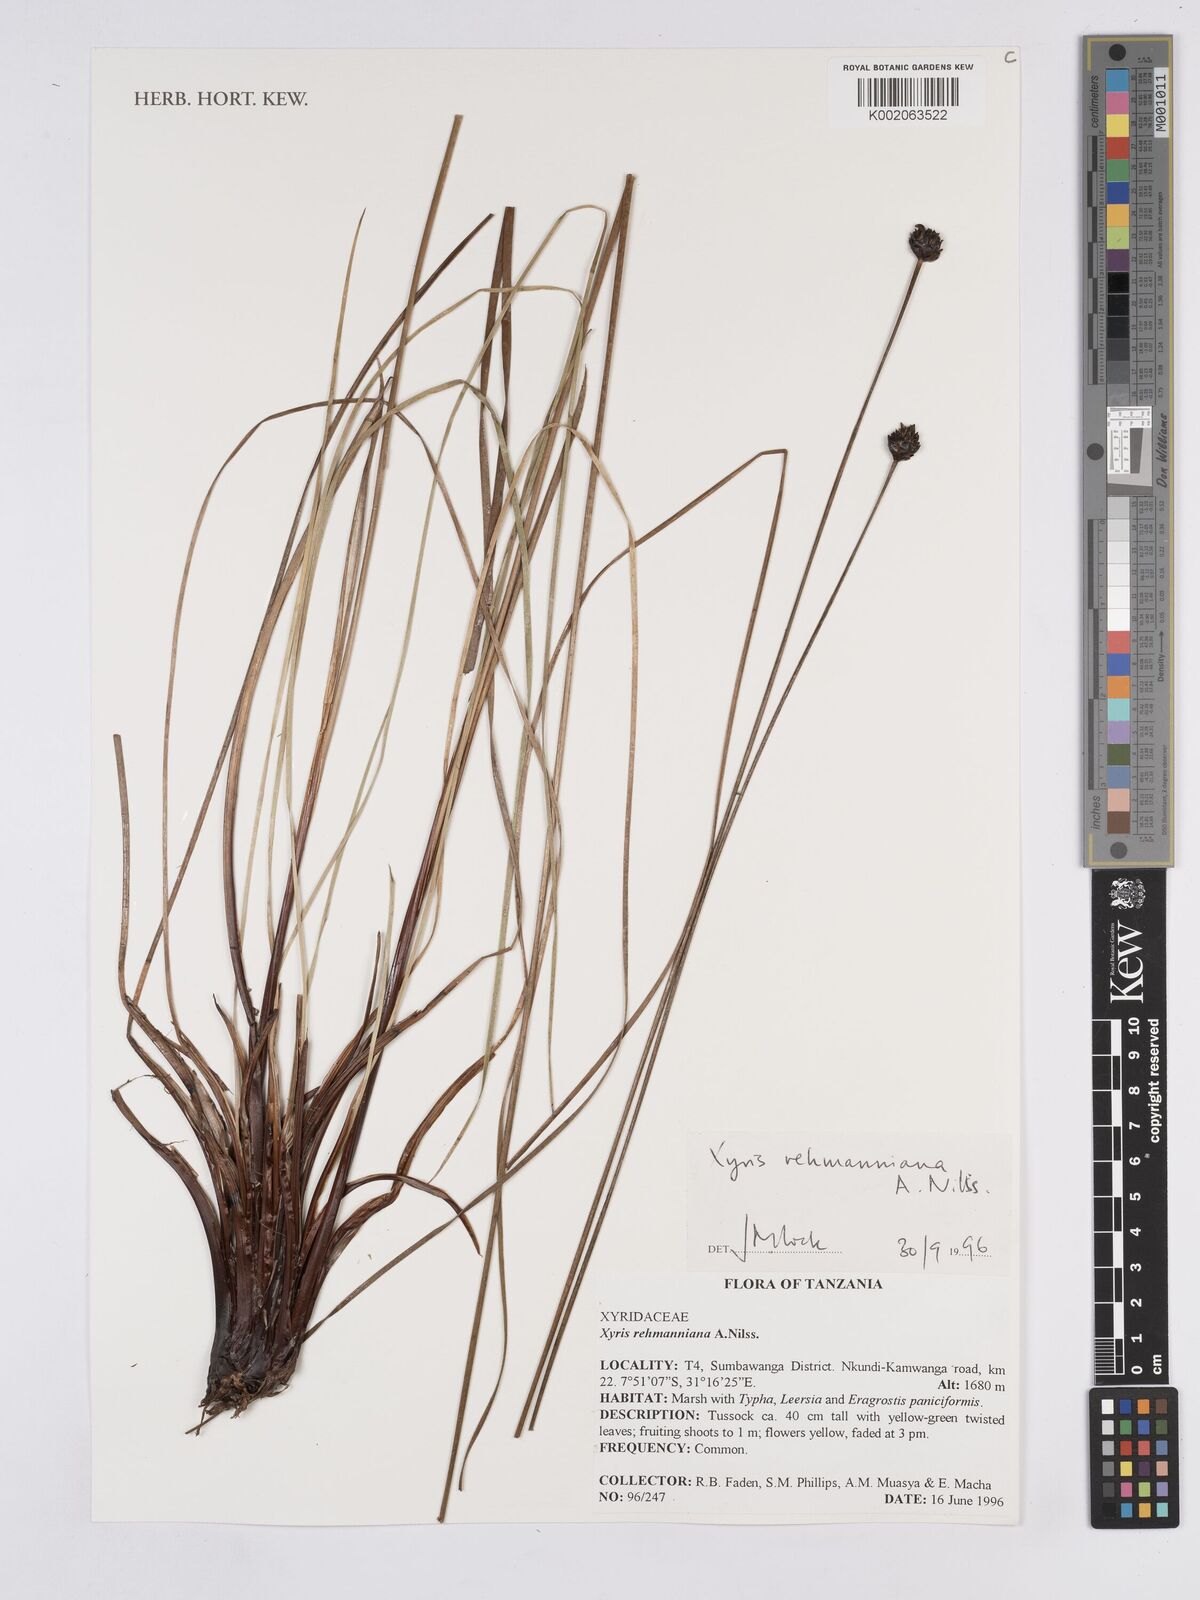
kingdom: Plantae
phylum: Tracheophyta
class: Liliopsida
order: Poales
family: Xyridaceae
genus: Xyris
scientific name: Xyris rehmannii
